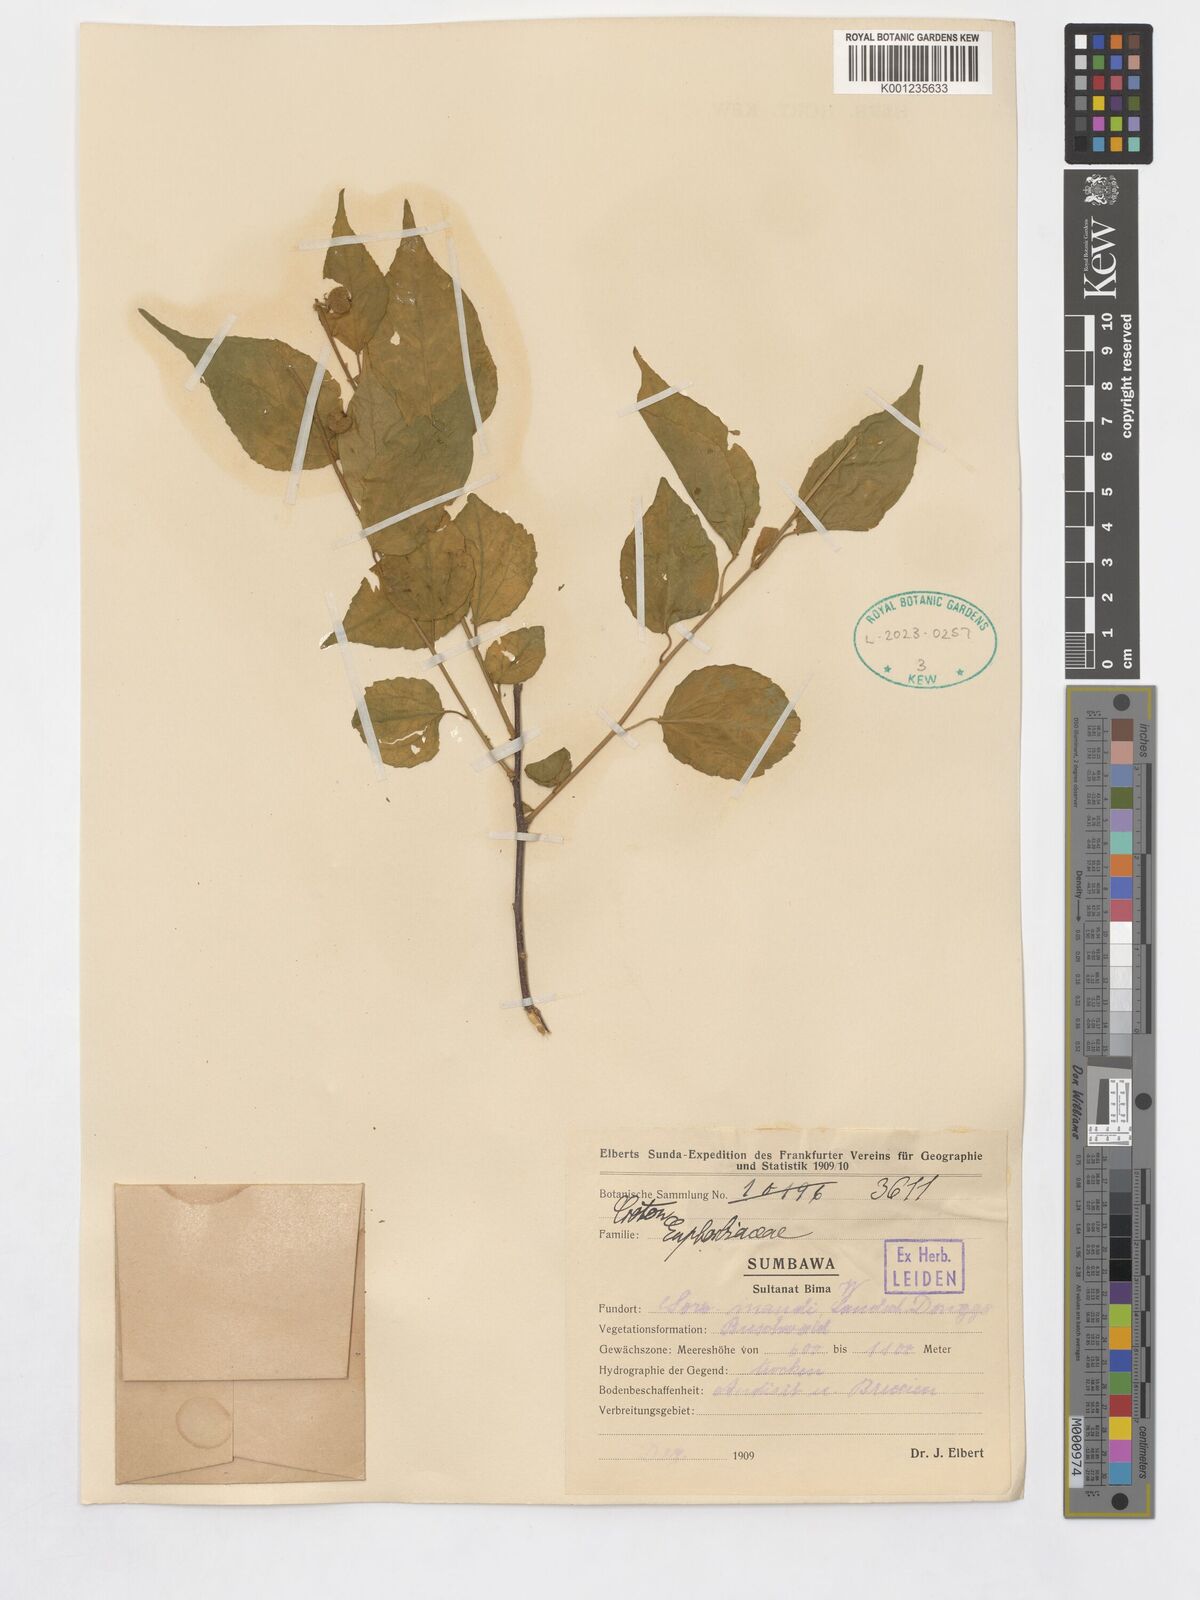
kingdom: Plantae
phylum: Tracheophyta
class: Magnoliopsida
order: Malpighiales
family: Euphorbiaceae
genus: Croton
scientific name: Croton
